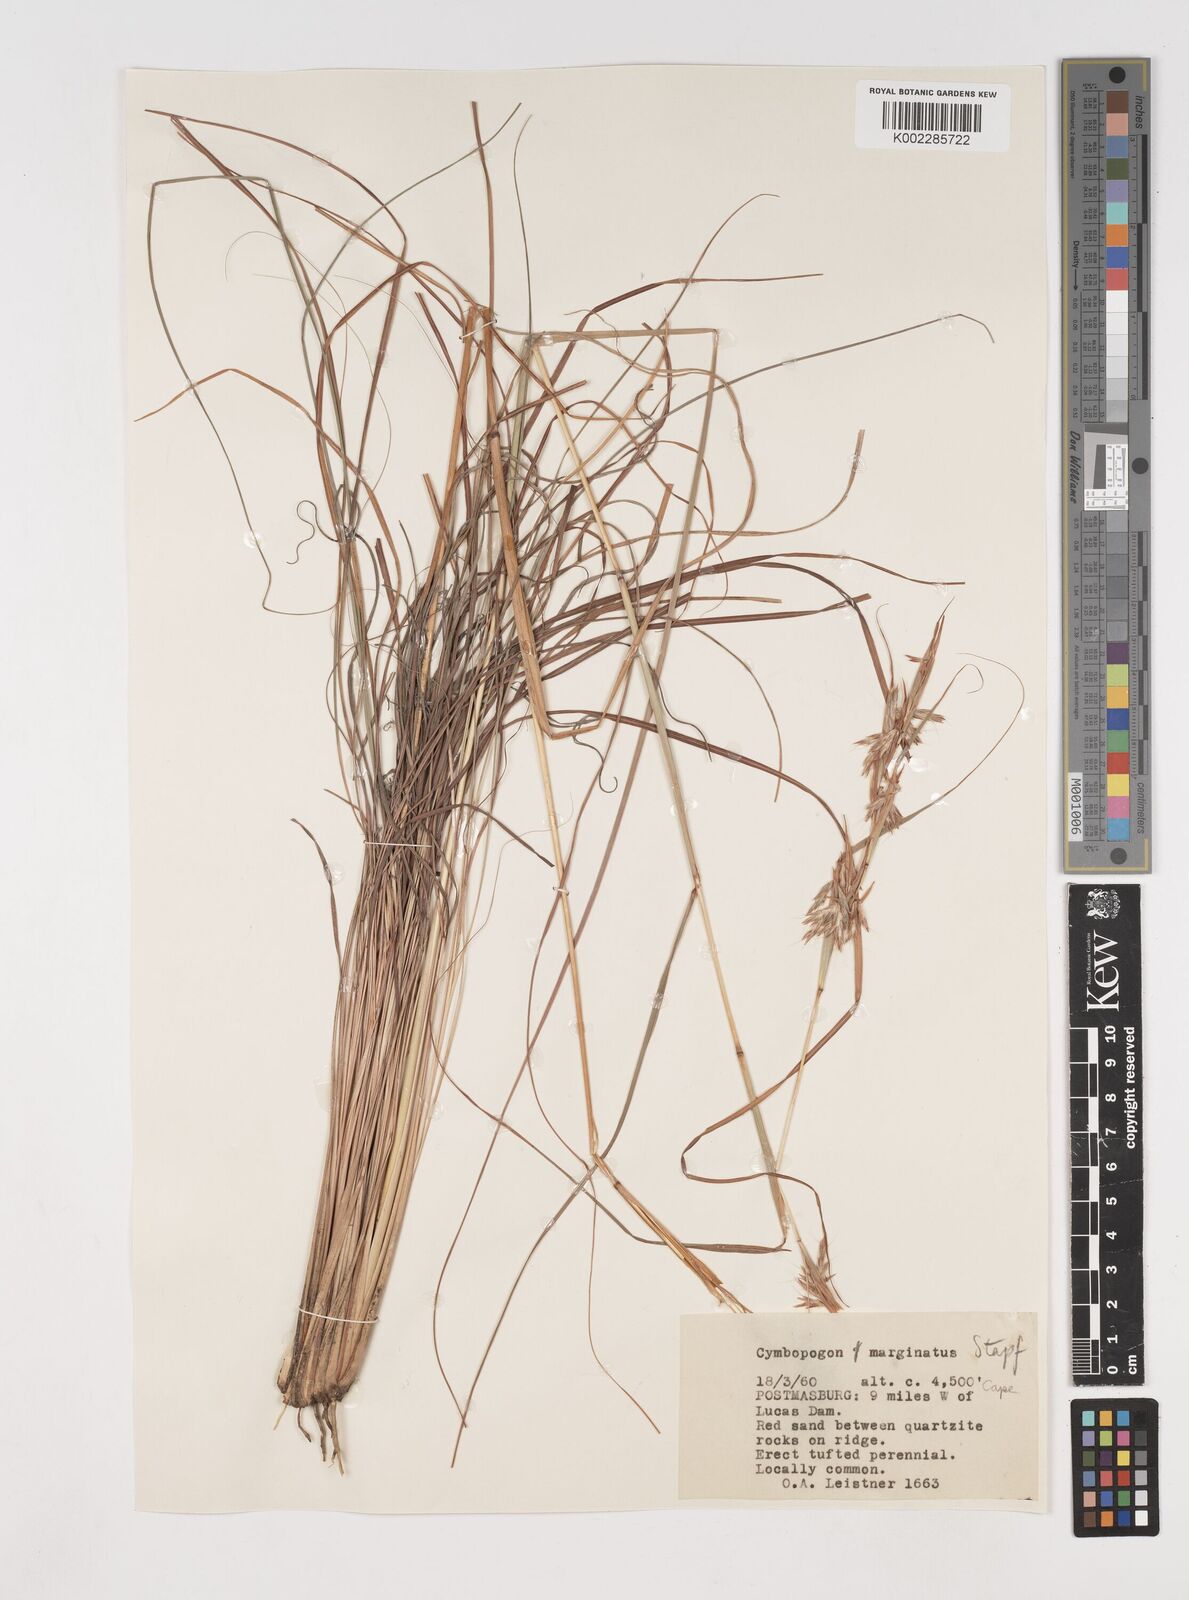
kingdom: Plantae
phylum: Tracheophyta
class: Liliopsida
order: Poales
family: Poaceae
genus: Cymbopogon
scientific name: Cymbopogon dieterlenii
